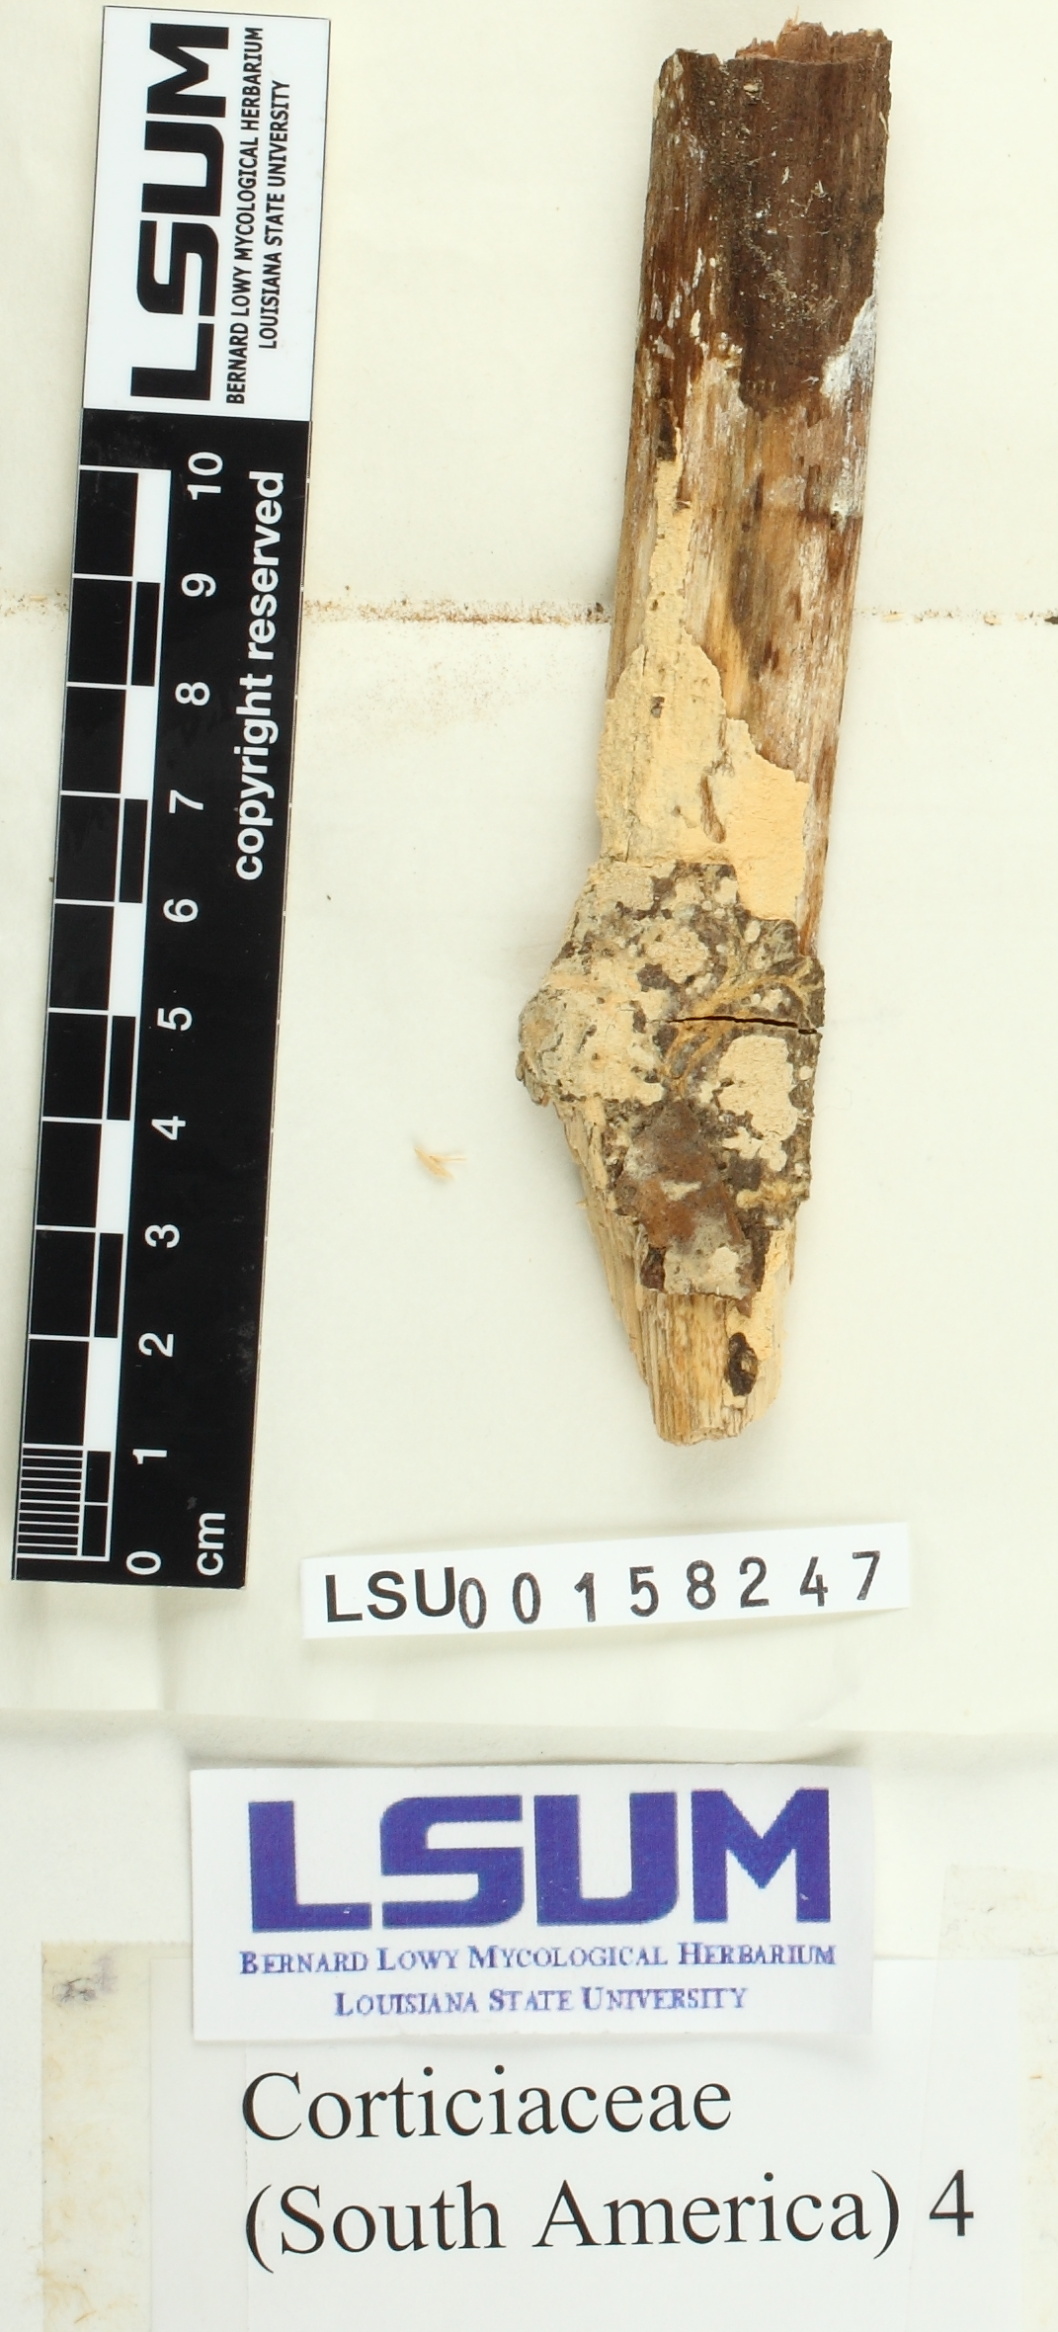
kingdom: Fungi
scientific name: Fungi
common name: Fungi
